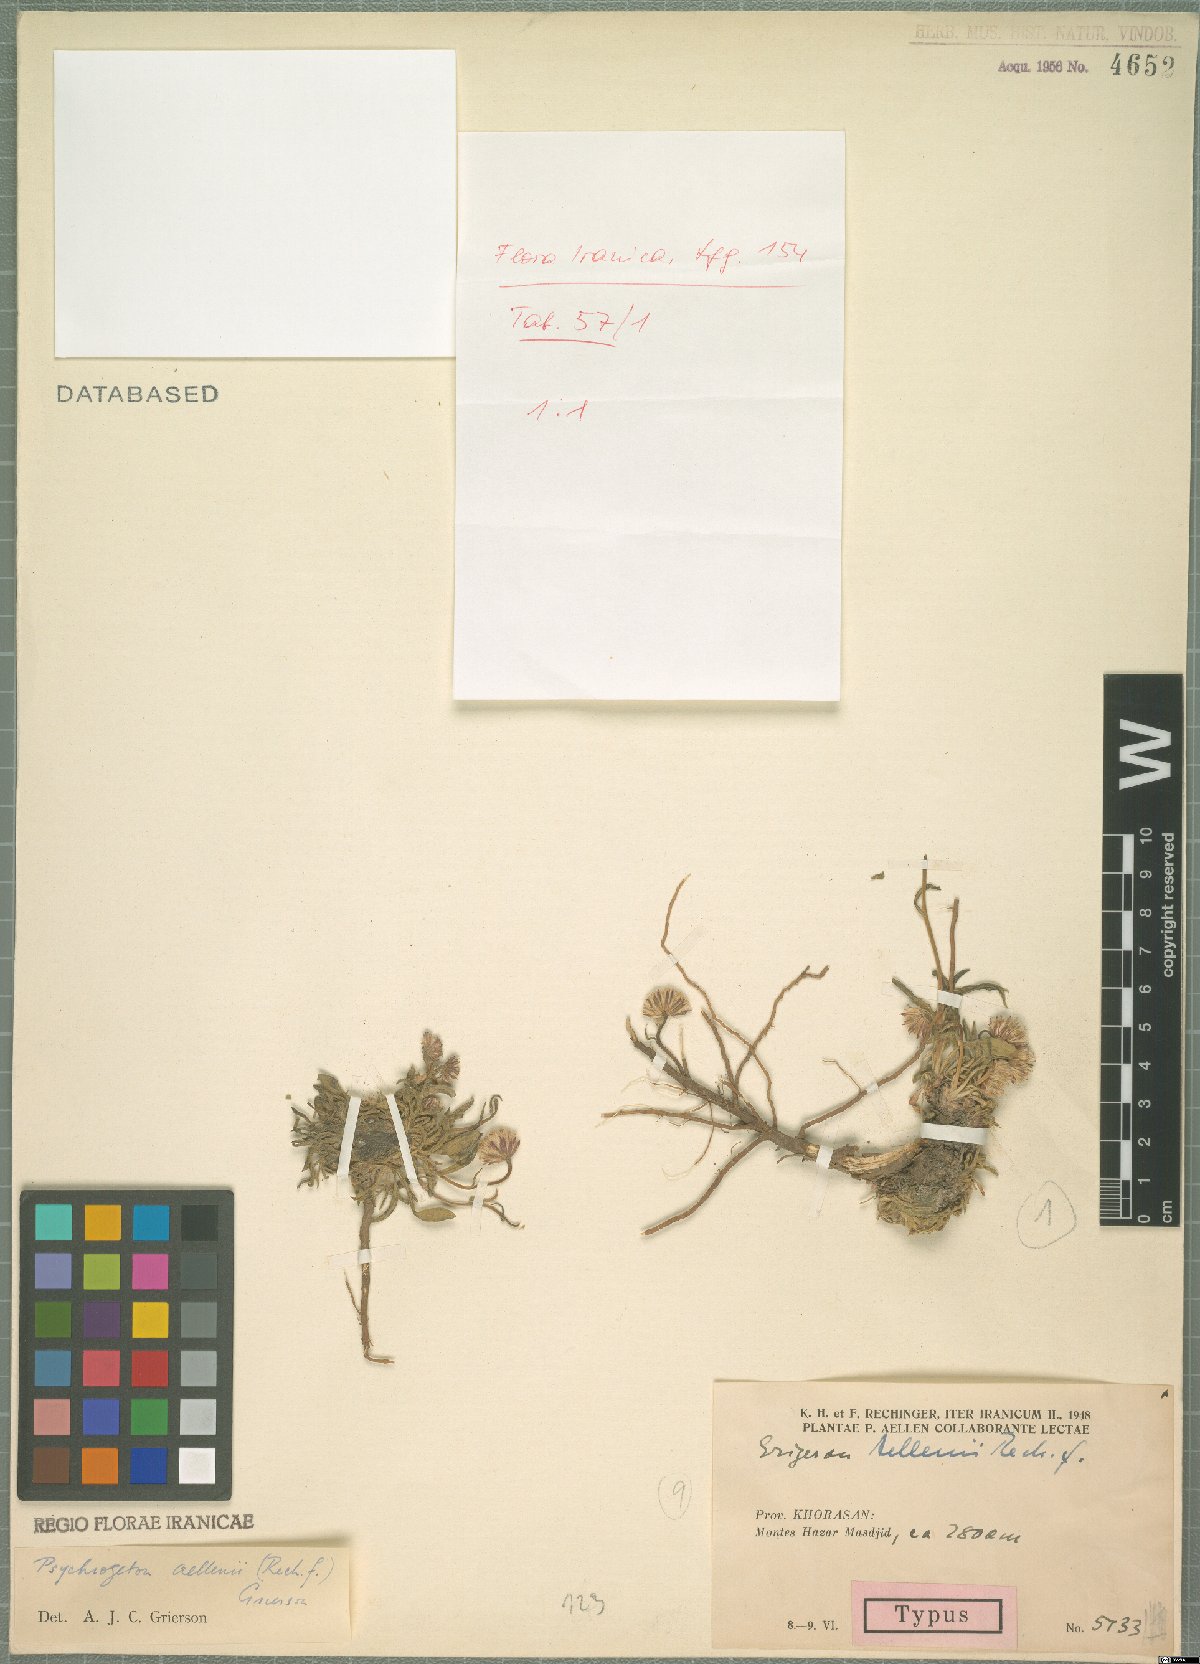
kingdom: Plantae
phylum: Tracheophyta
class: Magnoliopsida
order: Asterales
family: Asteraceae
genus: Psychrogeton
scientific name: Psychrogeton aellenii
